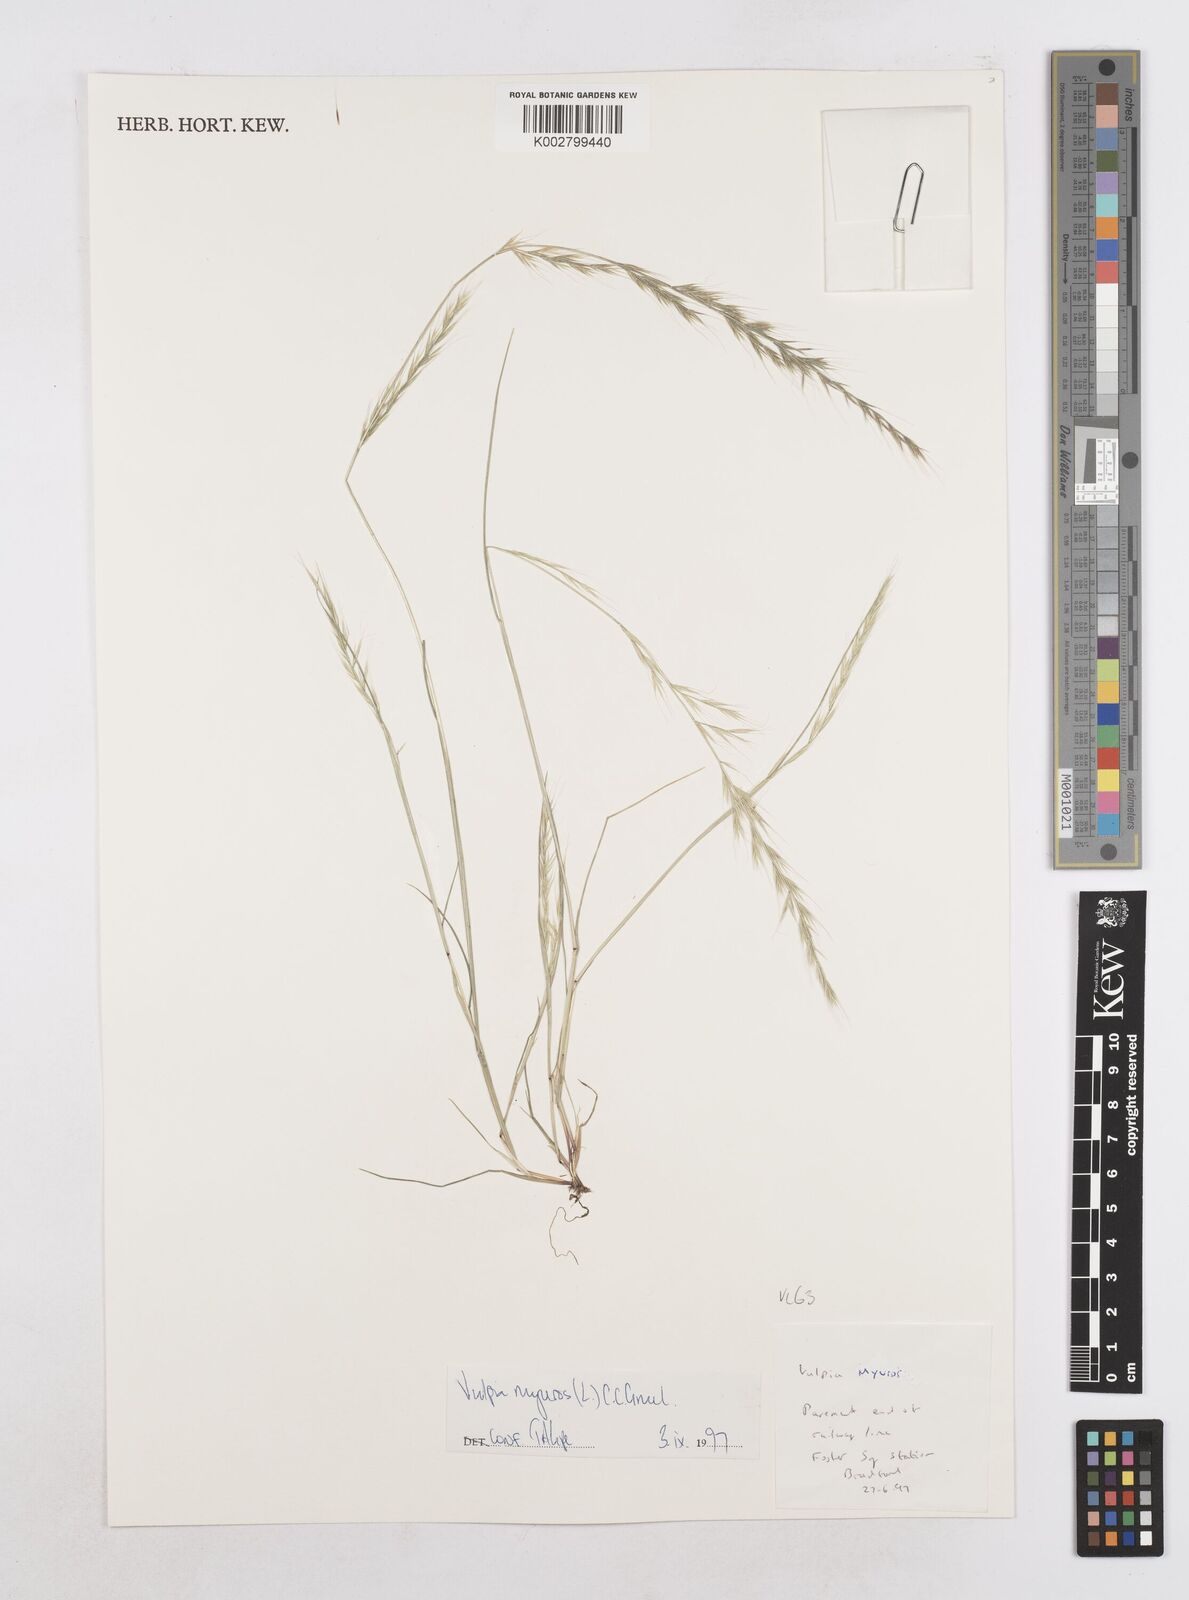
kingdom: Plantae
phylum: Tracheophyta
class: Liliopsida
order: Poales
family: Poaceae
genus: Festuca
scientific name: Festuca myuros
